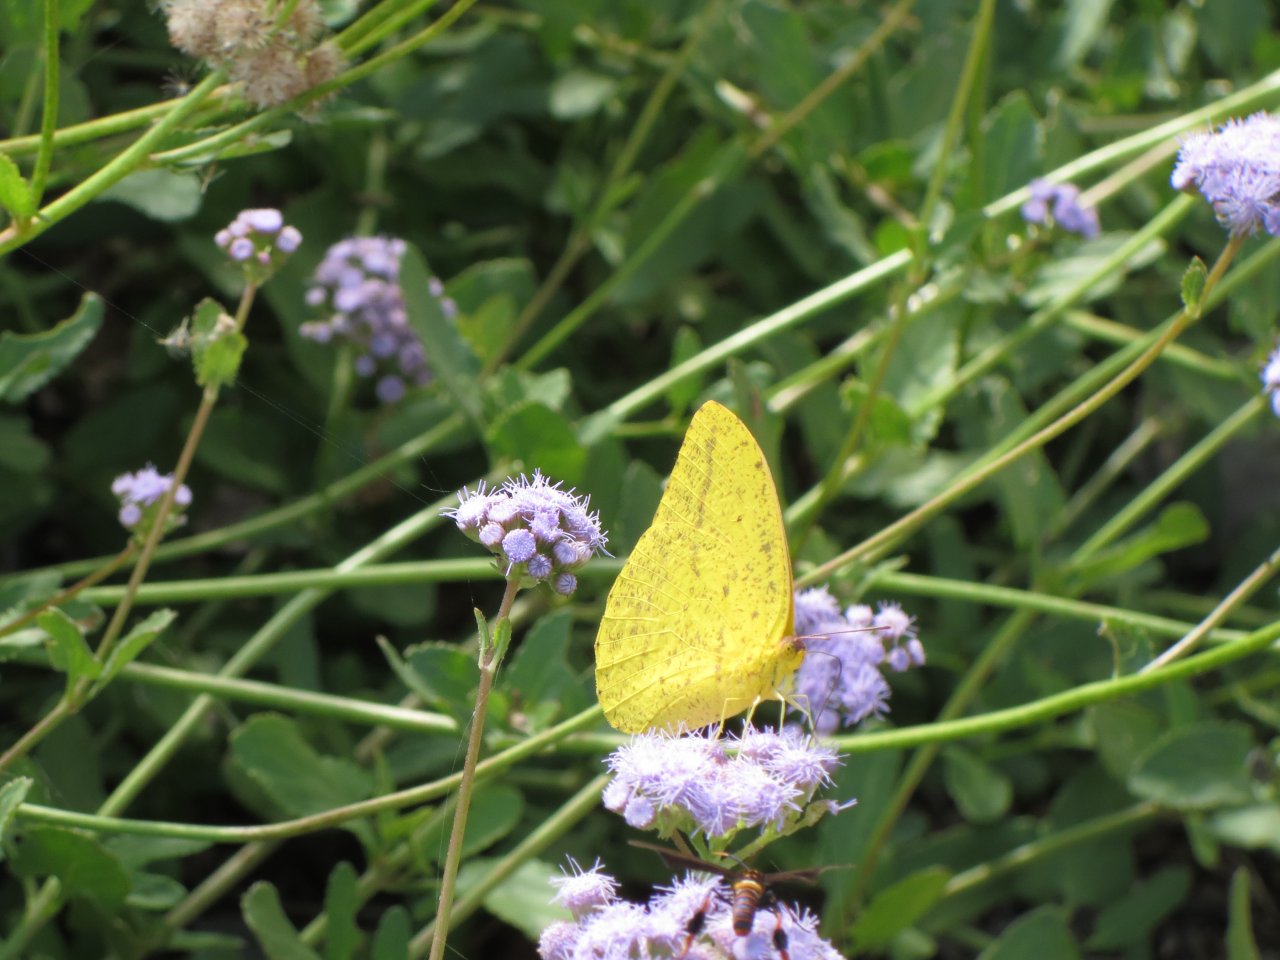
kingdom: Animalia
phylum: Arthropoda
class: Insecta
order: Lepidoptera
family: Pieridae
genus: Phoebis
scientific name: Phoebis agarithe
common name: Large Orange Sulphur
